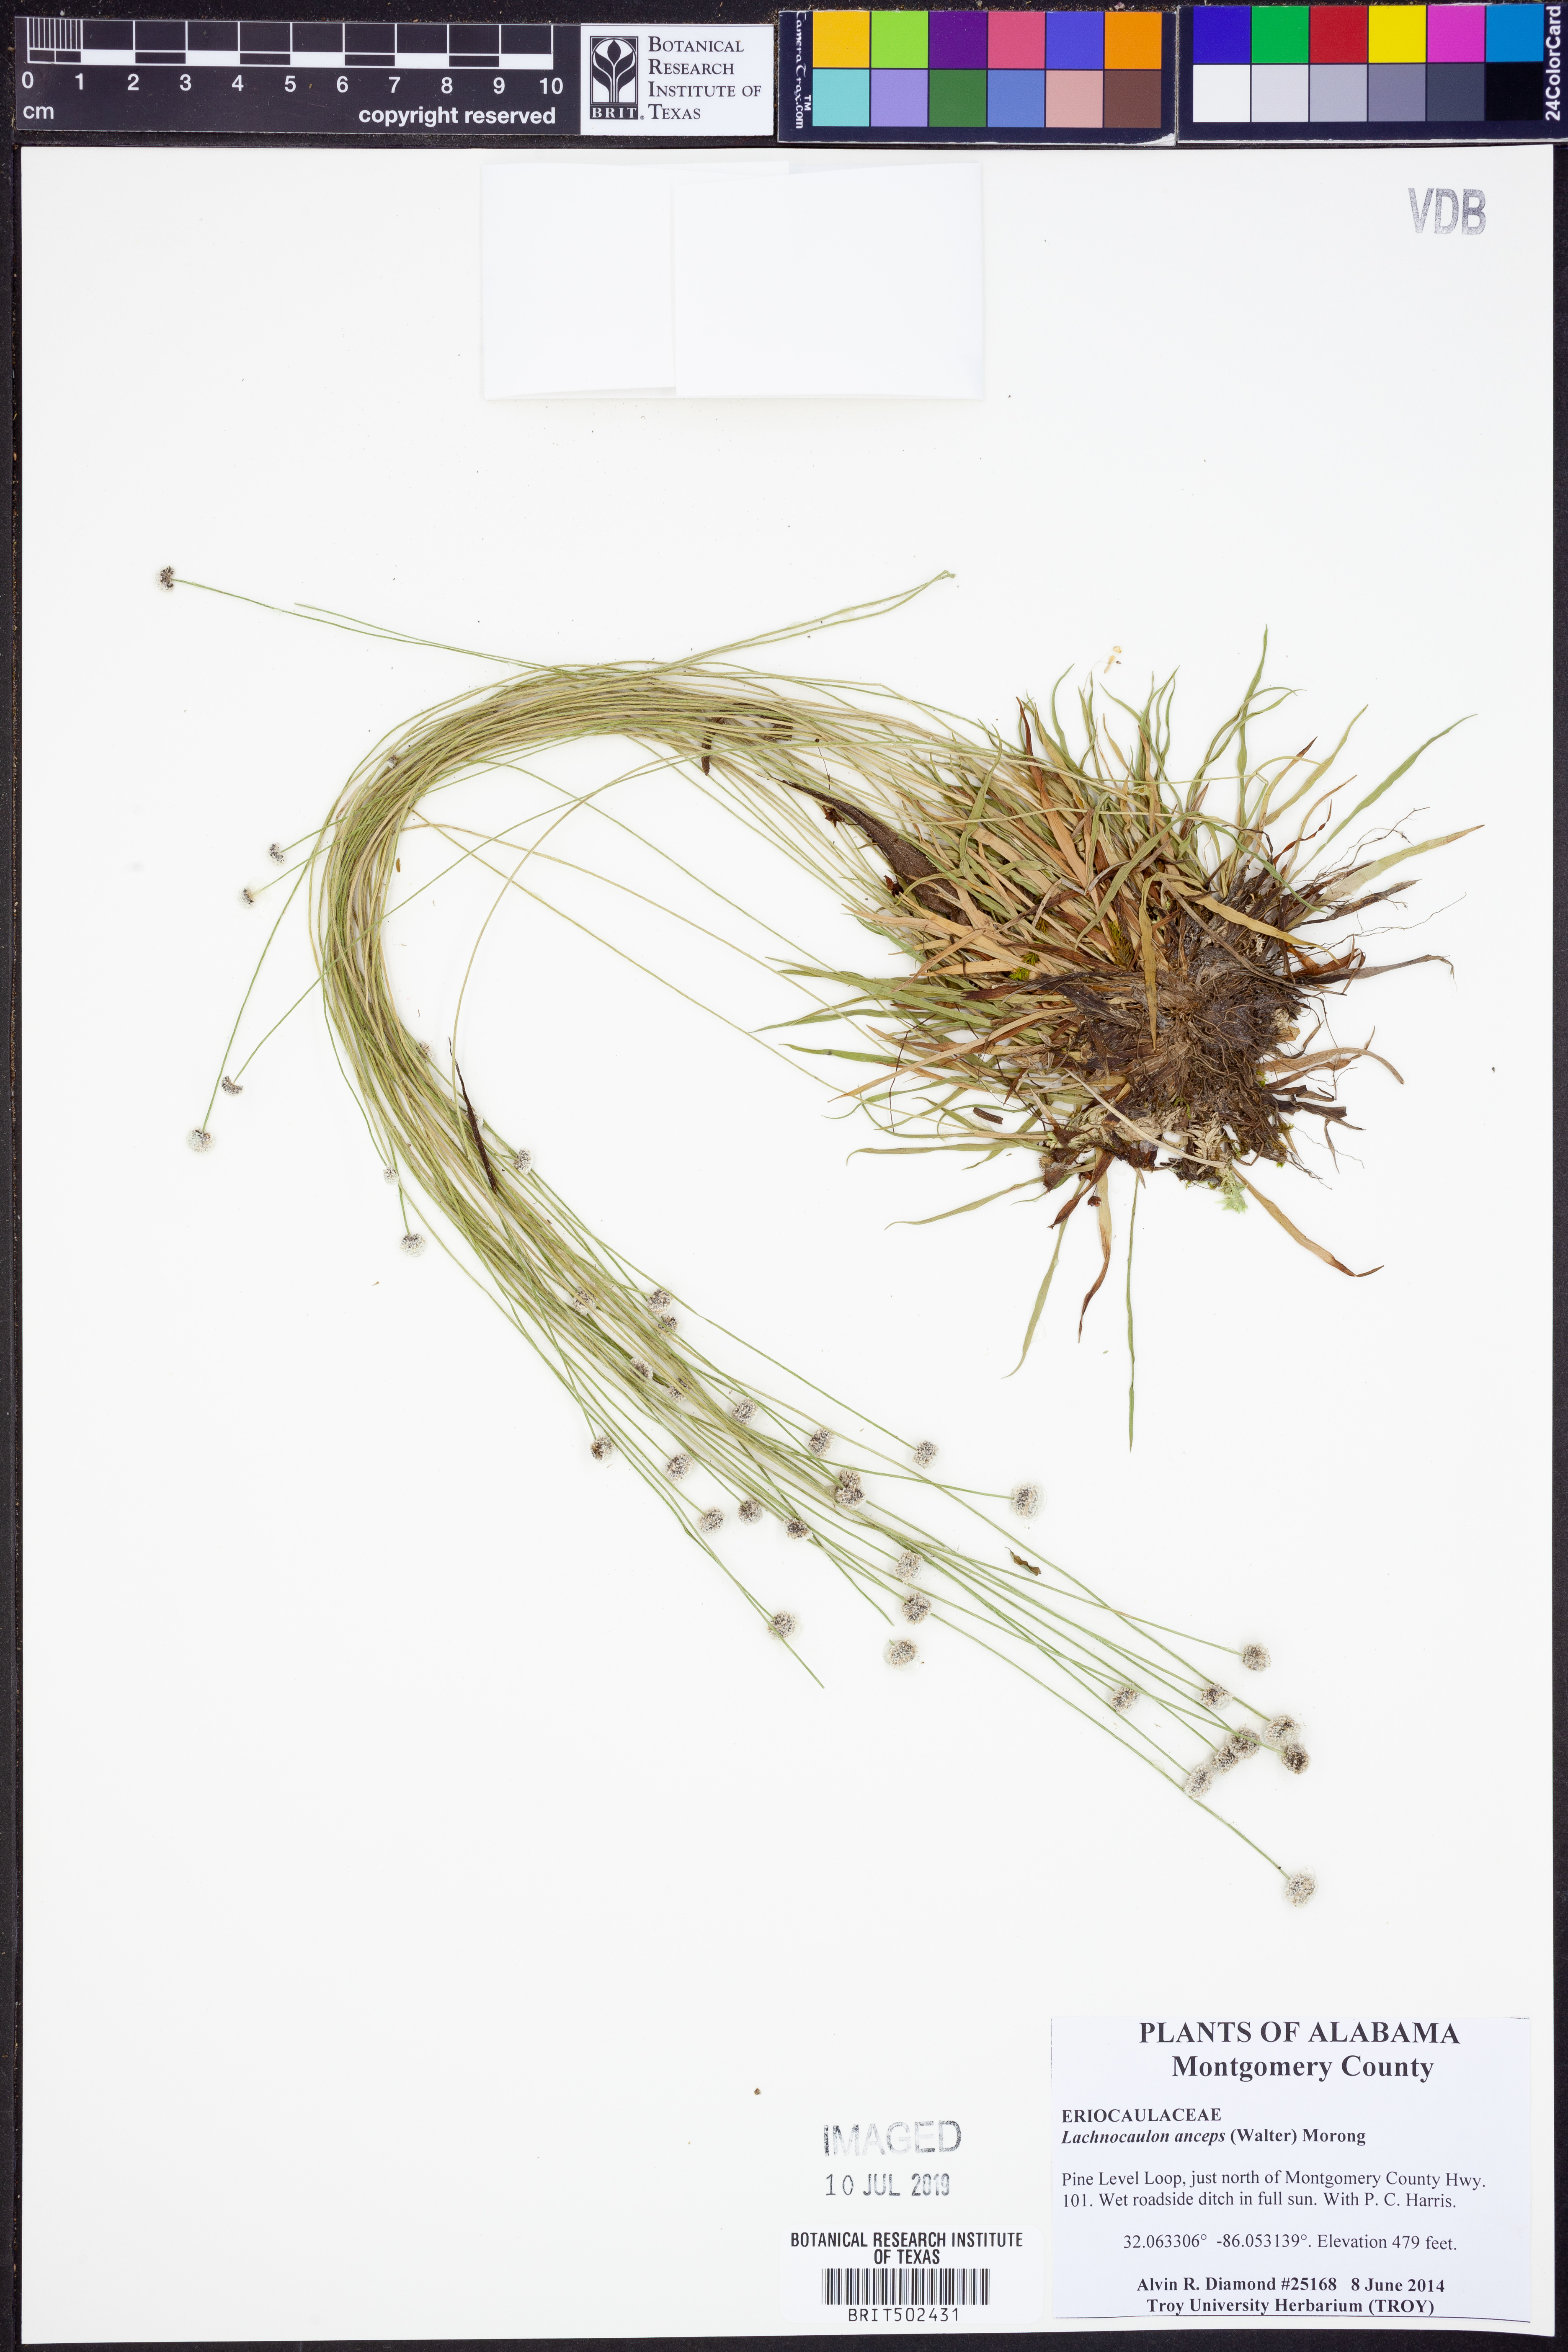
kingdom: Plantae
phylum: Tracheophyta
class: Liliopsida
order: Poales
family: Eriocaulaceae
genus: Paepalanthus
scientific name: Paepalanthus anceps
